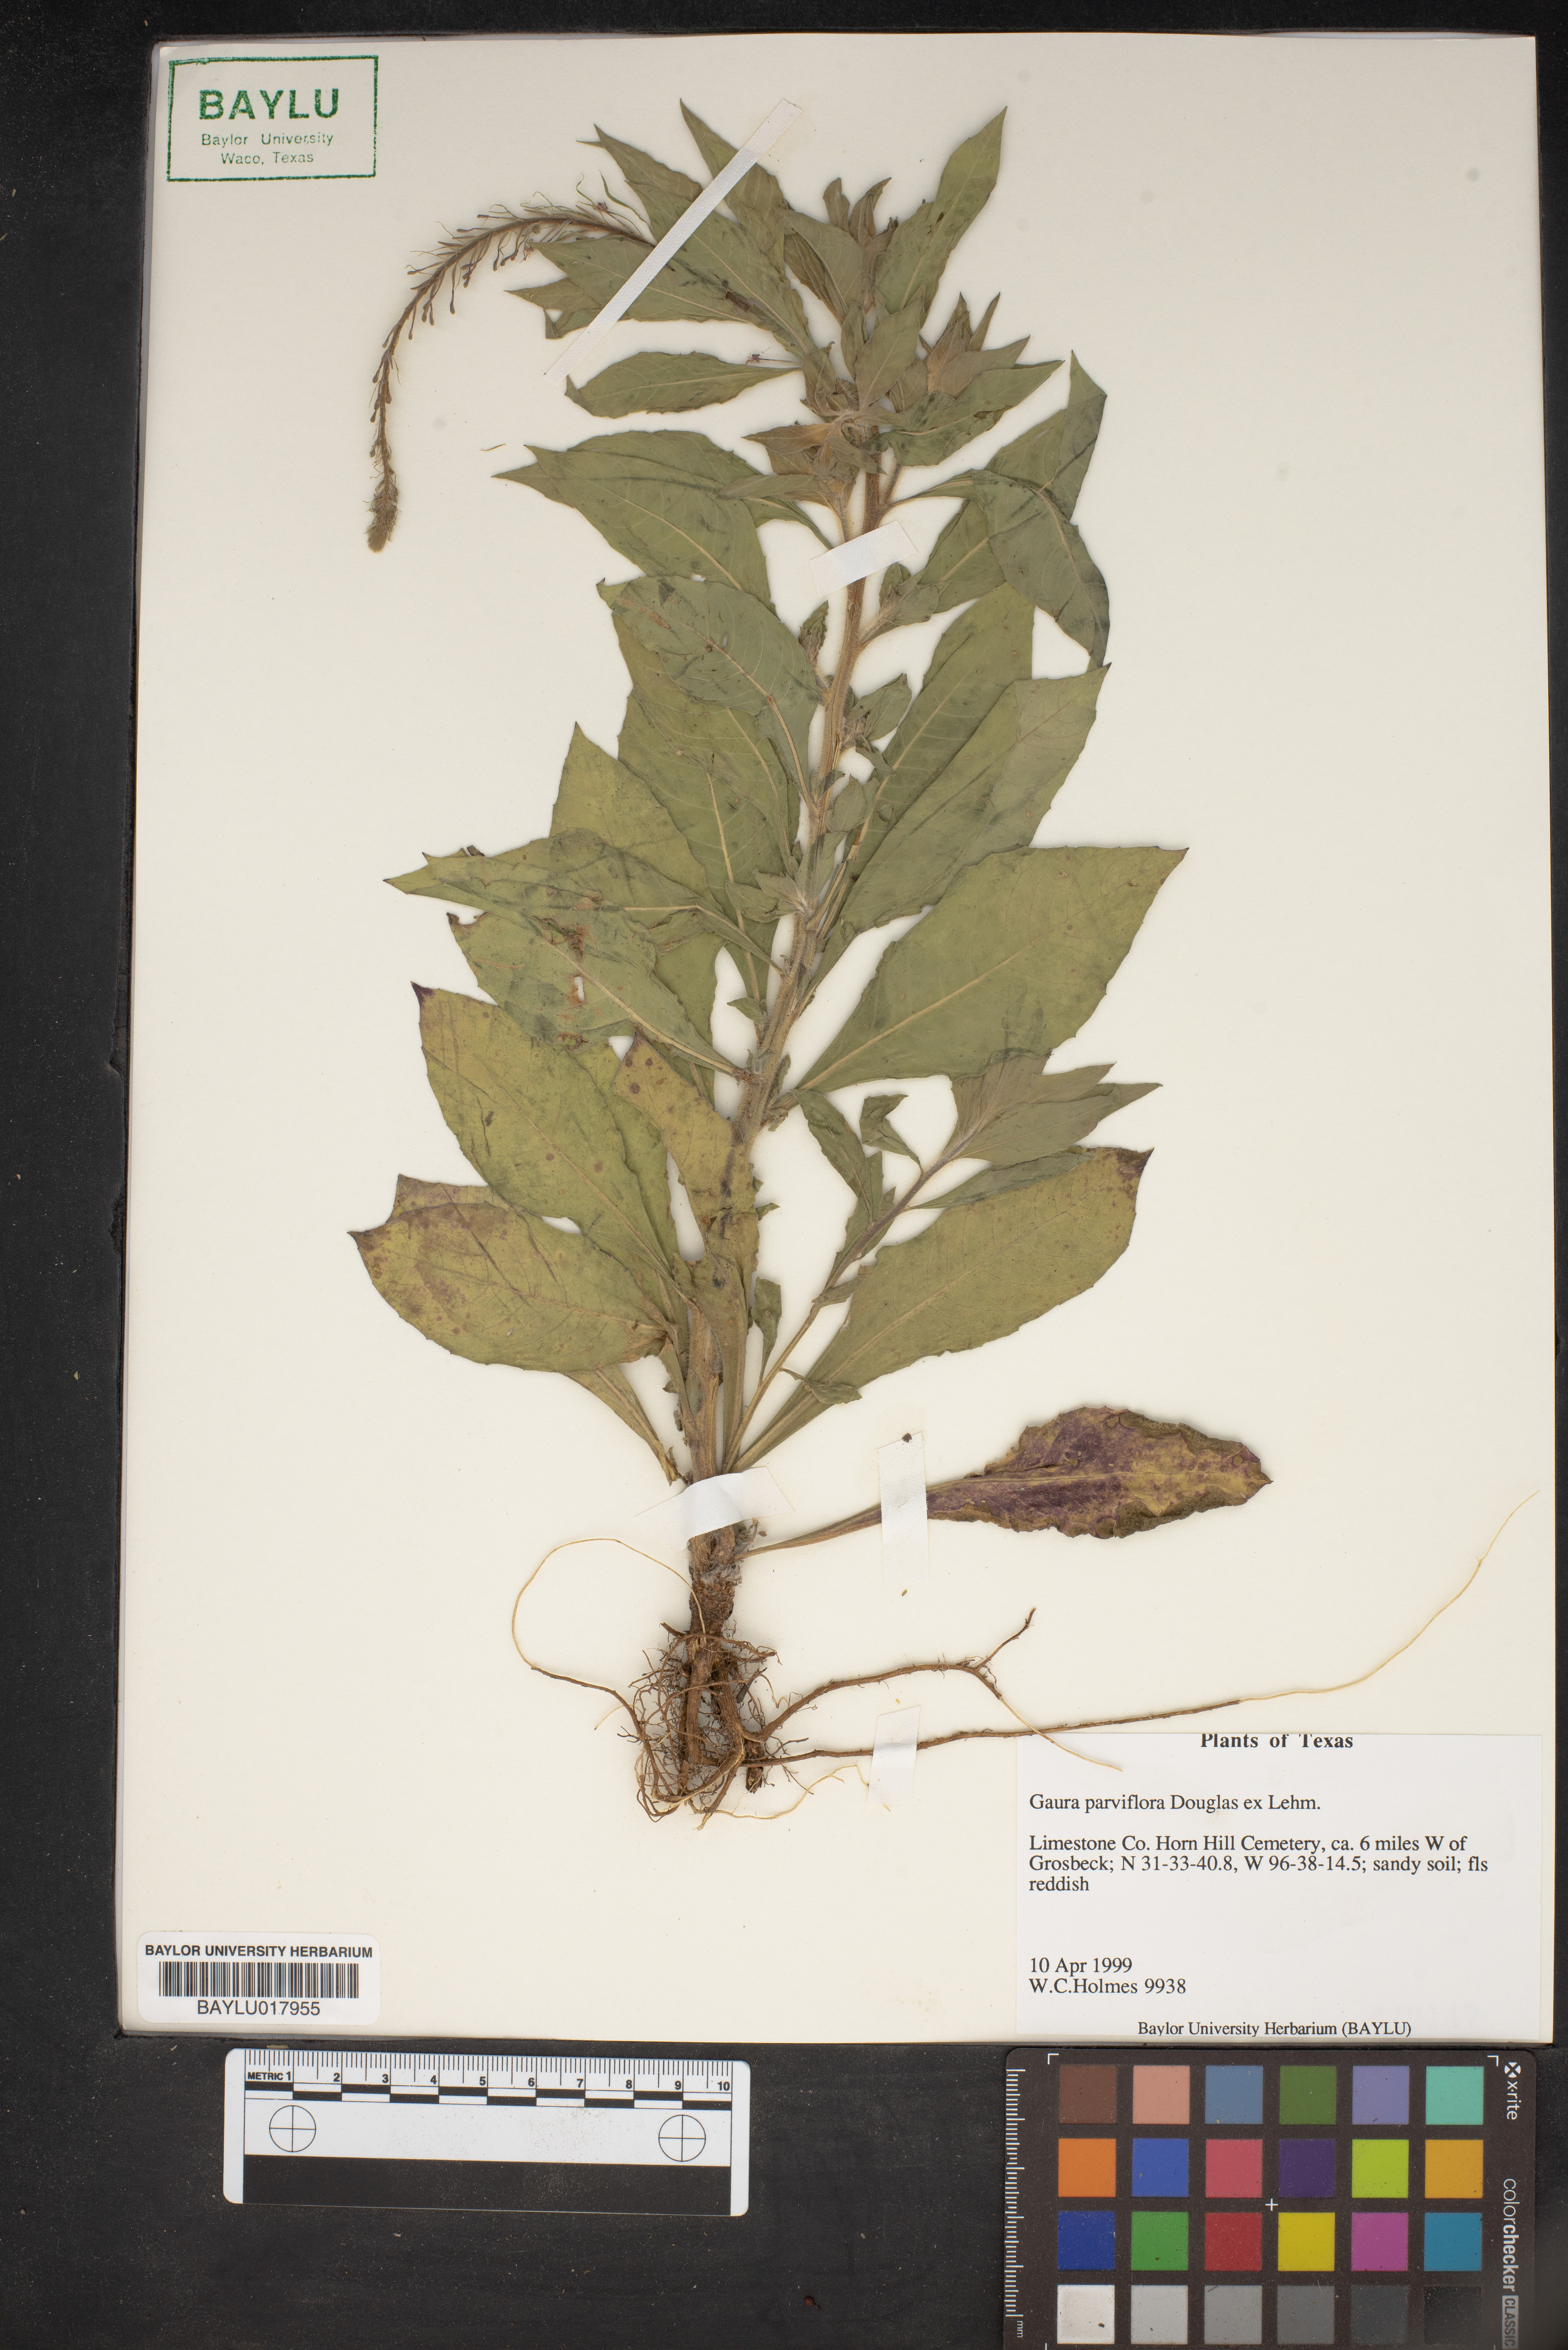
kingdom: Plantae
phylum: Tracheophyta
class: Magnoliopsida
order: Myrtales
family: Onagraceae
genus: Oenothera
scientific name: Oenothera curtiflora
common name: Velvetweed
